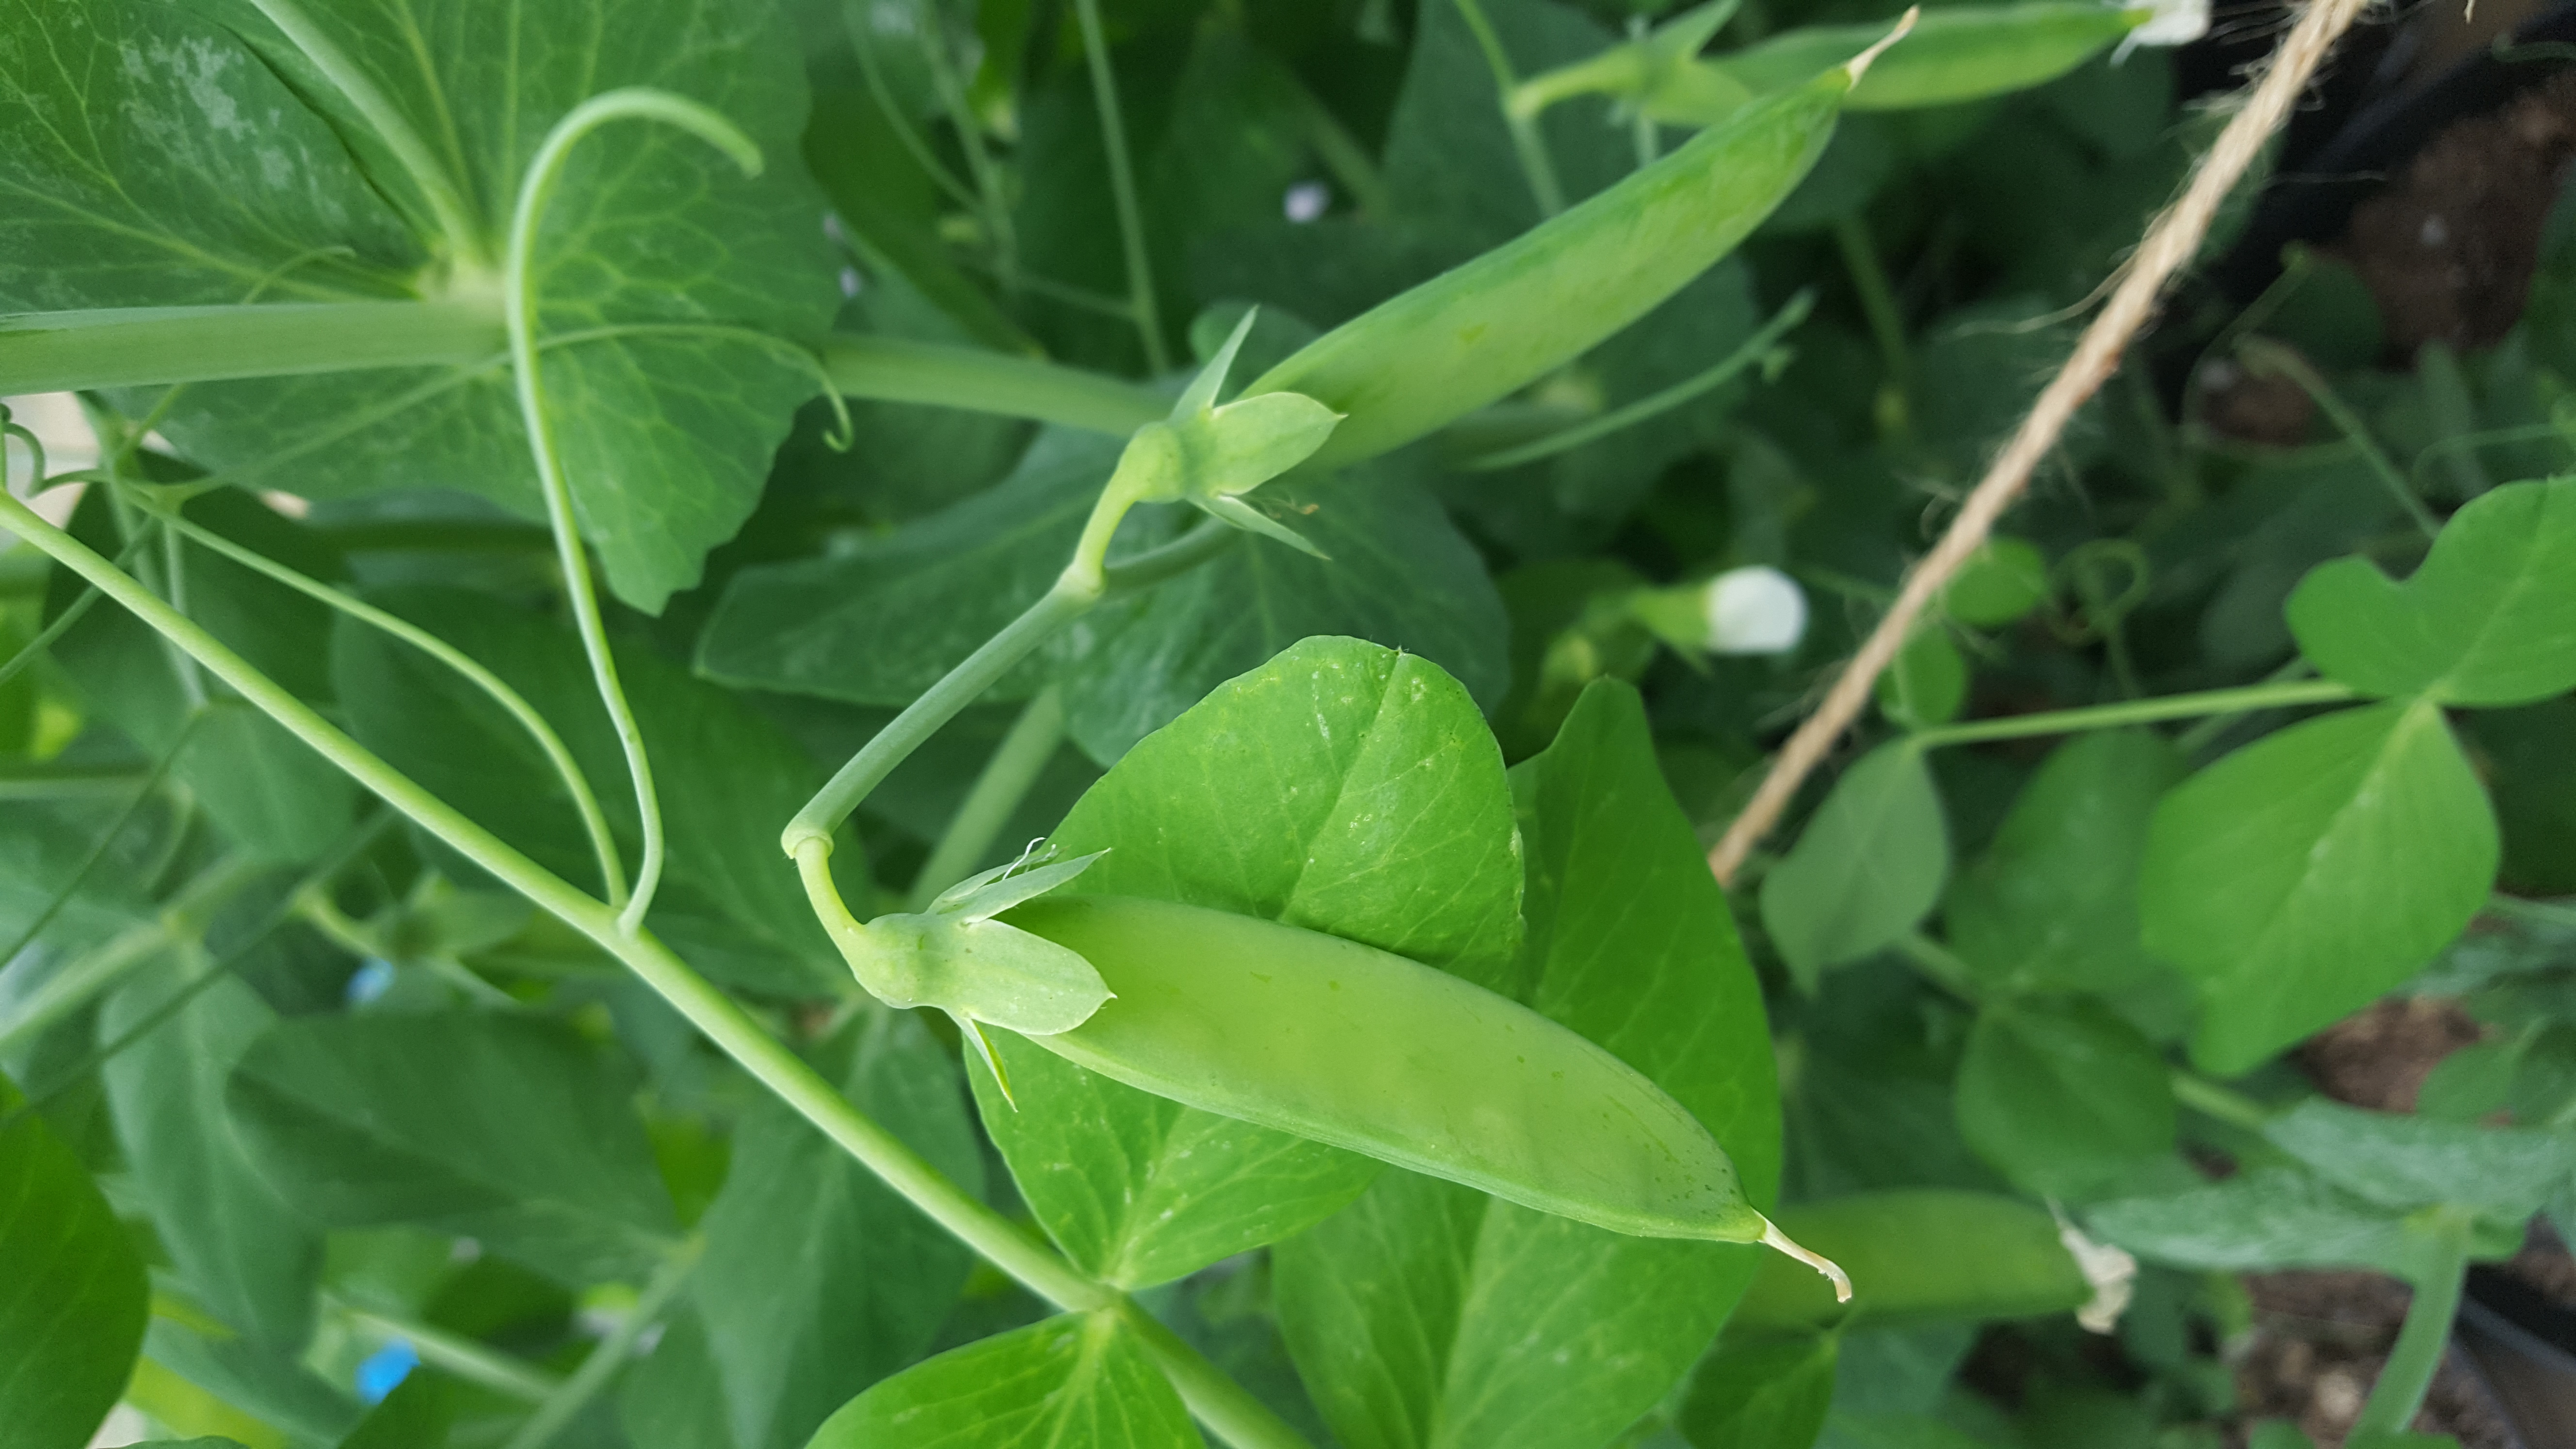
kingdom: Plantae
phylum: Tracheophyta
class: Magnoliopsida
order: Fabales
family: Fabaceae
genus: Lathyrus
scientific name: Lathyrus oleraceus
